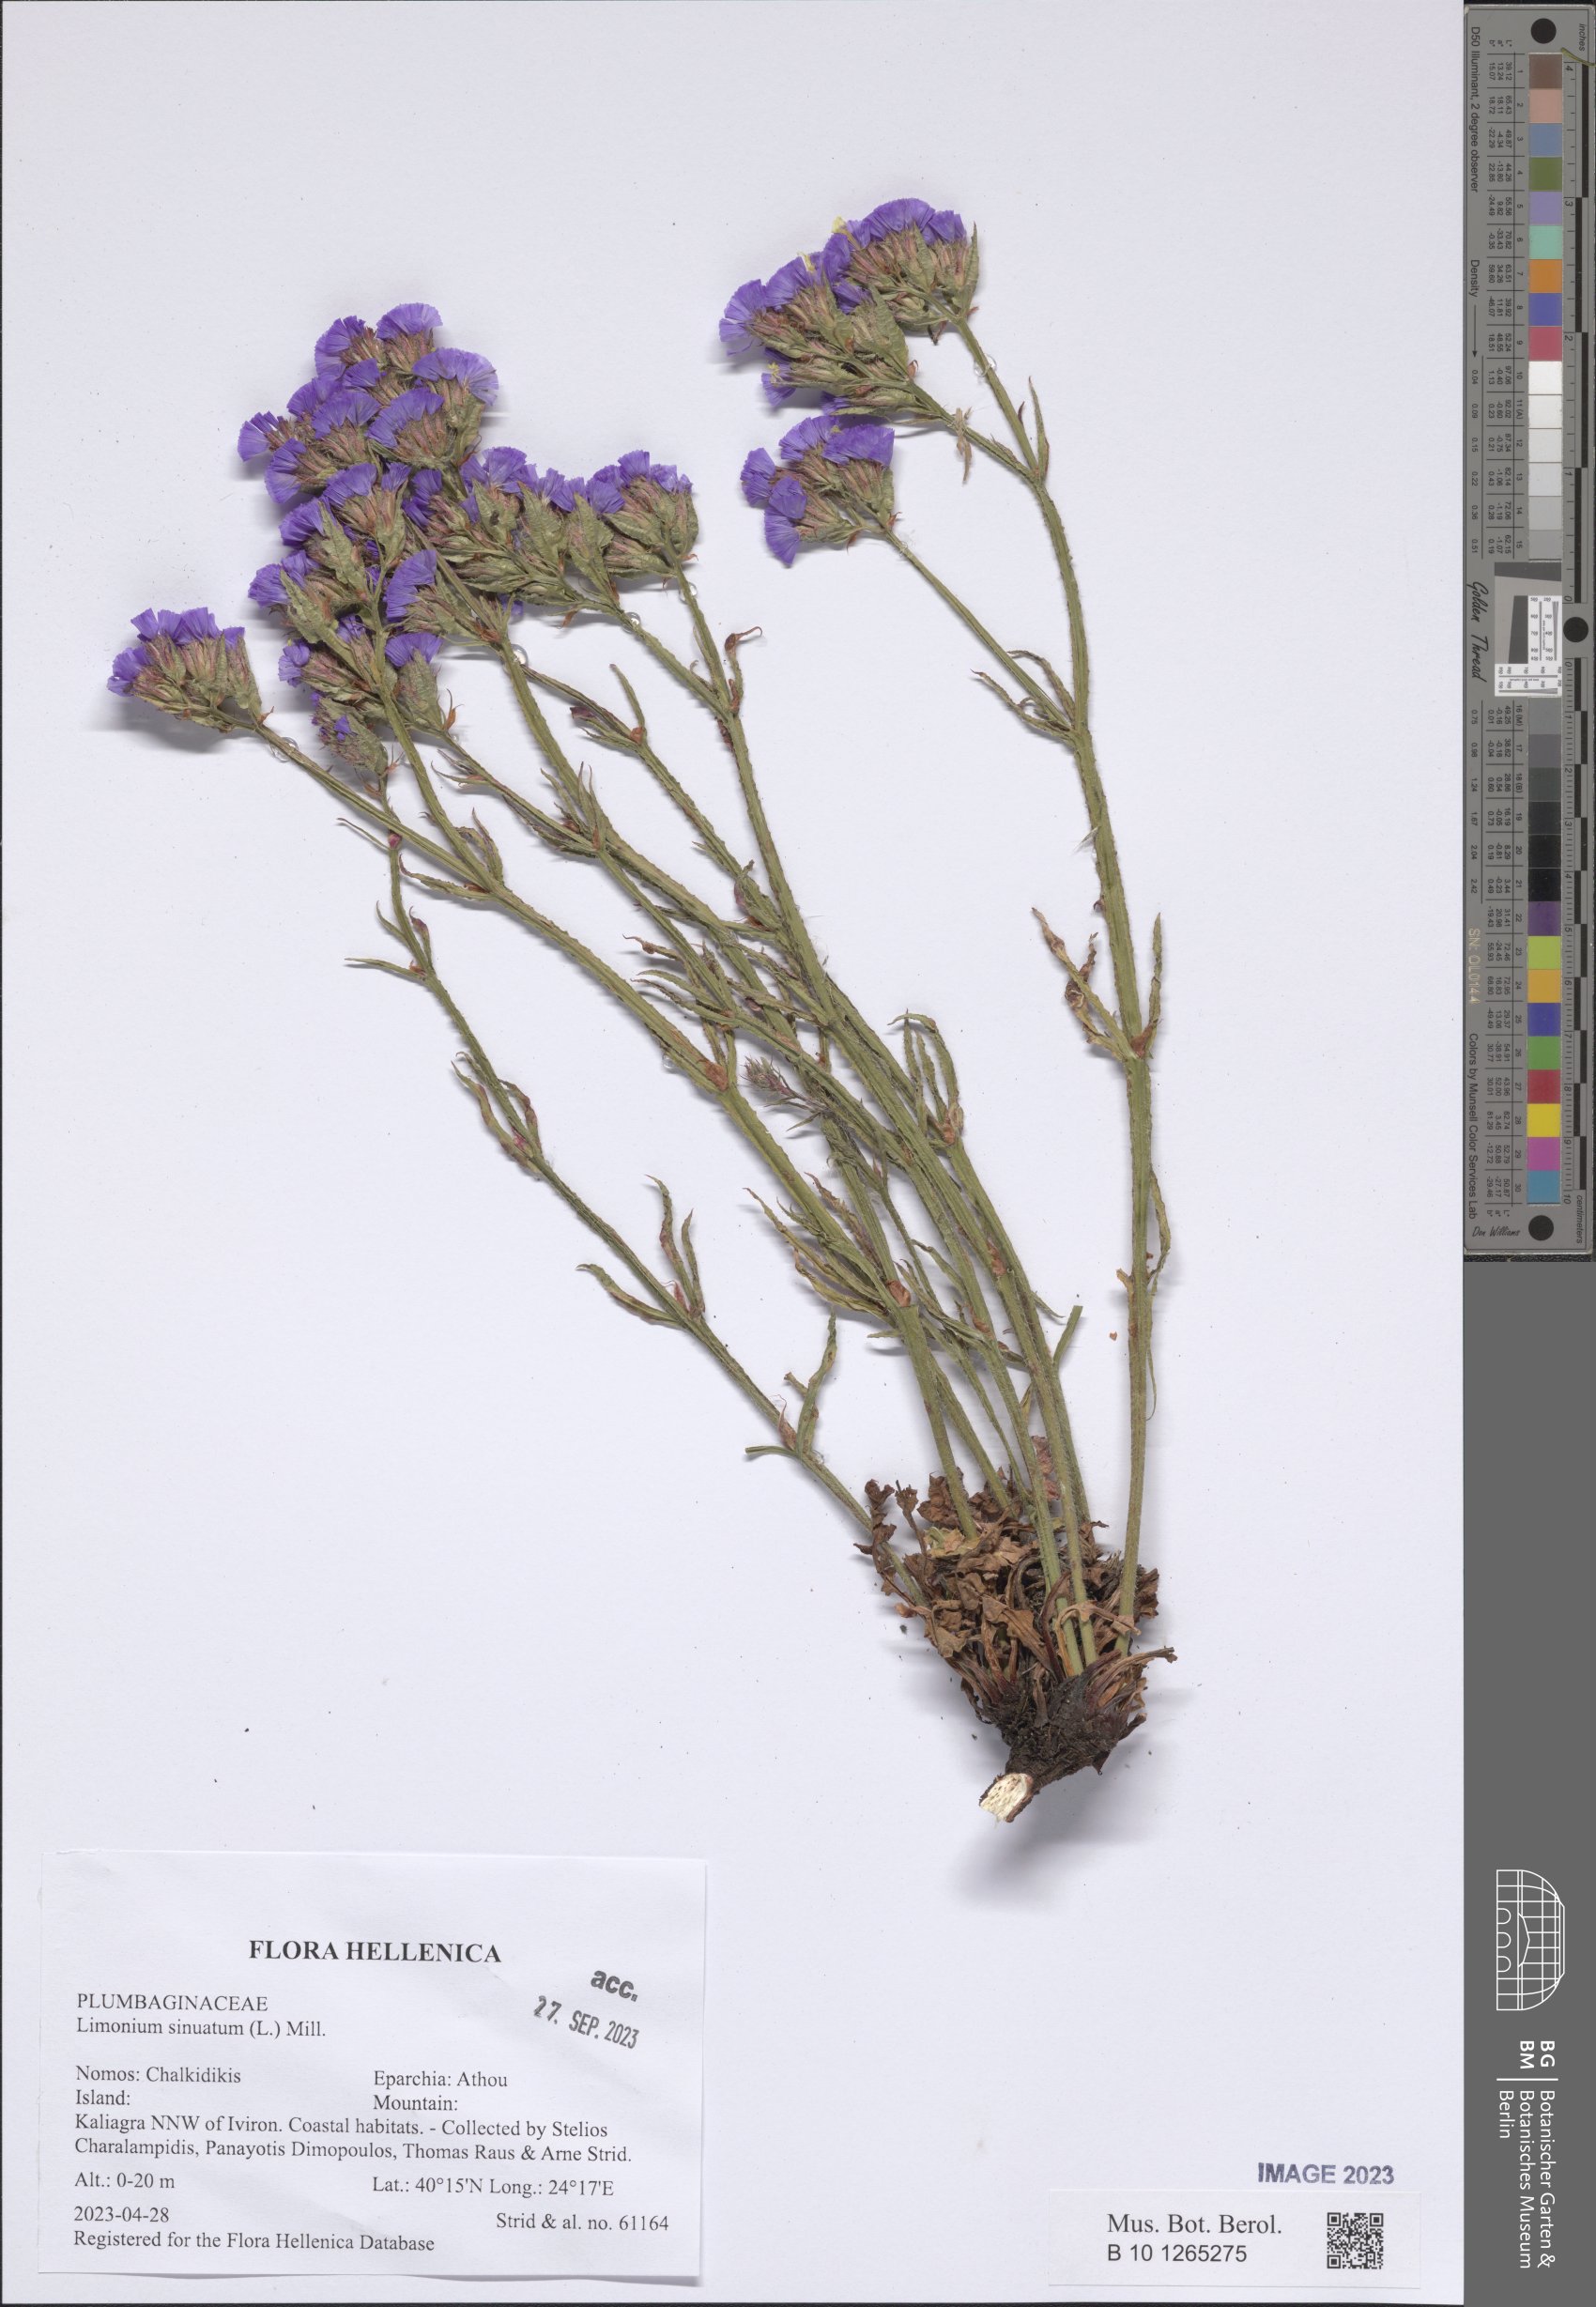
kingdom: Plantae
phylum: Tracheophyta
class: Magnoliopsida
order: Caryophyllales
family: Plumbaginaceae
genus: Limonium
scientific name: Limonium sinuatum
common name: Statice
